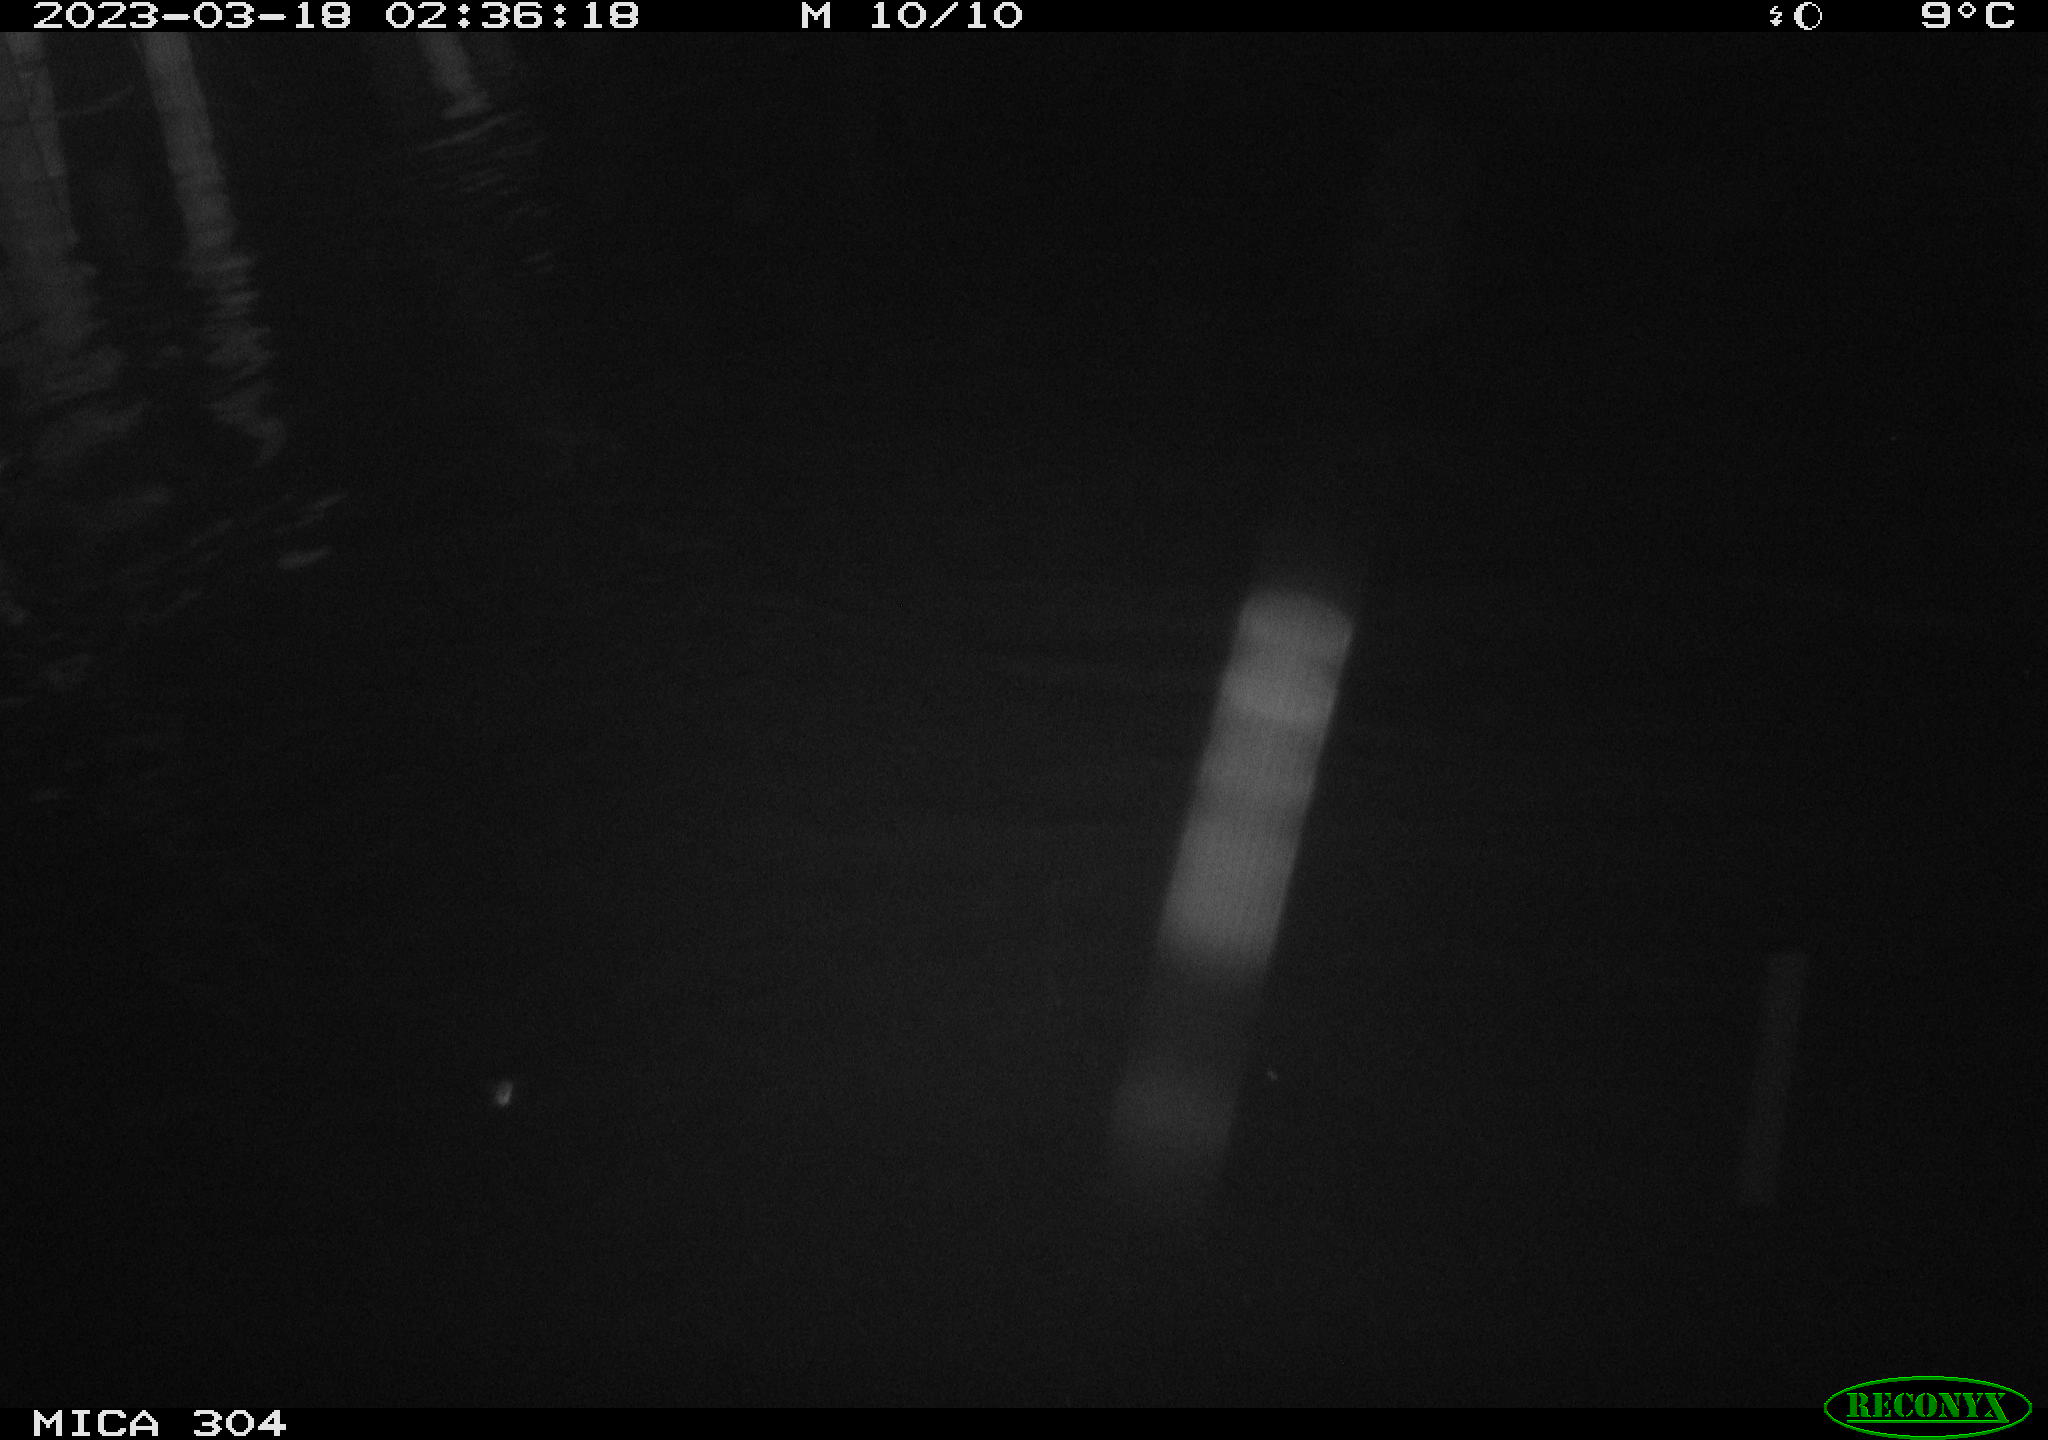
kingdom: Animalia
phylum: Chordata
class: Mammalia
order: Rodentia
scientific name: Rodentia
